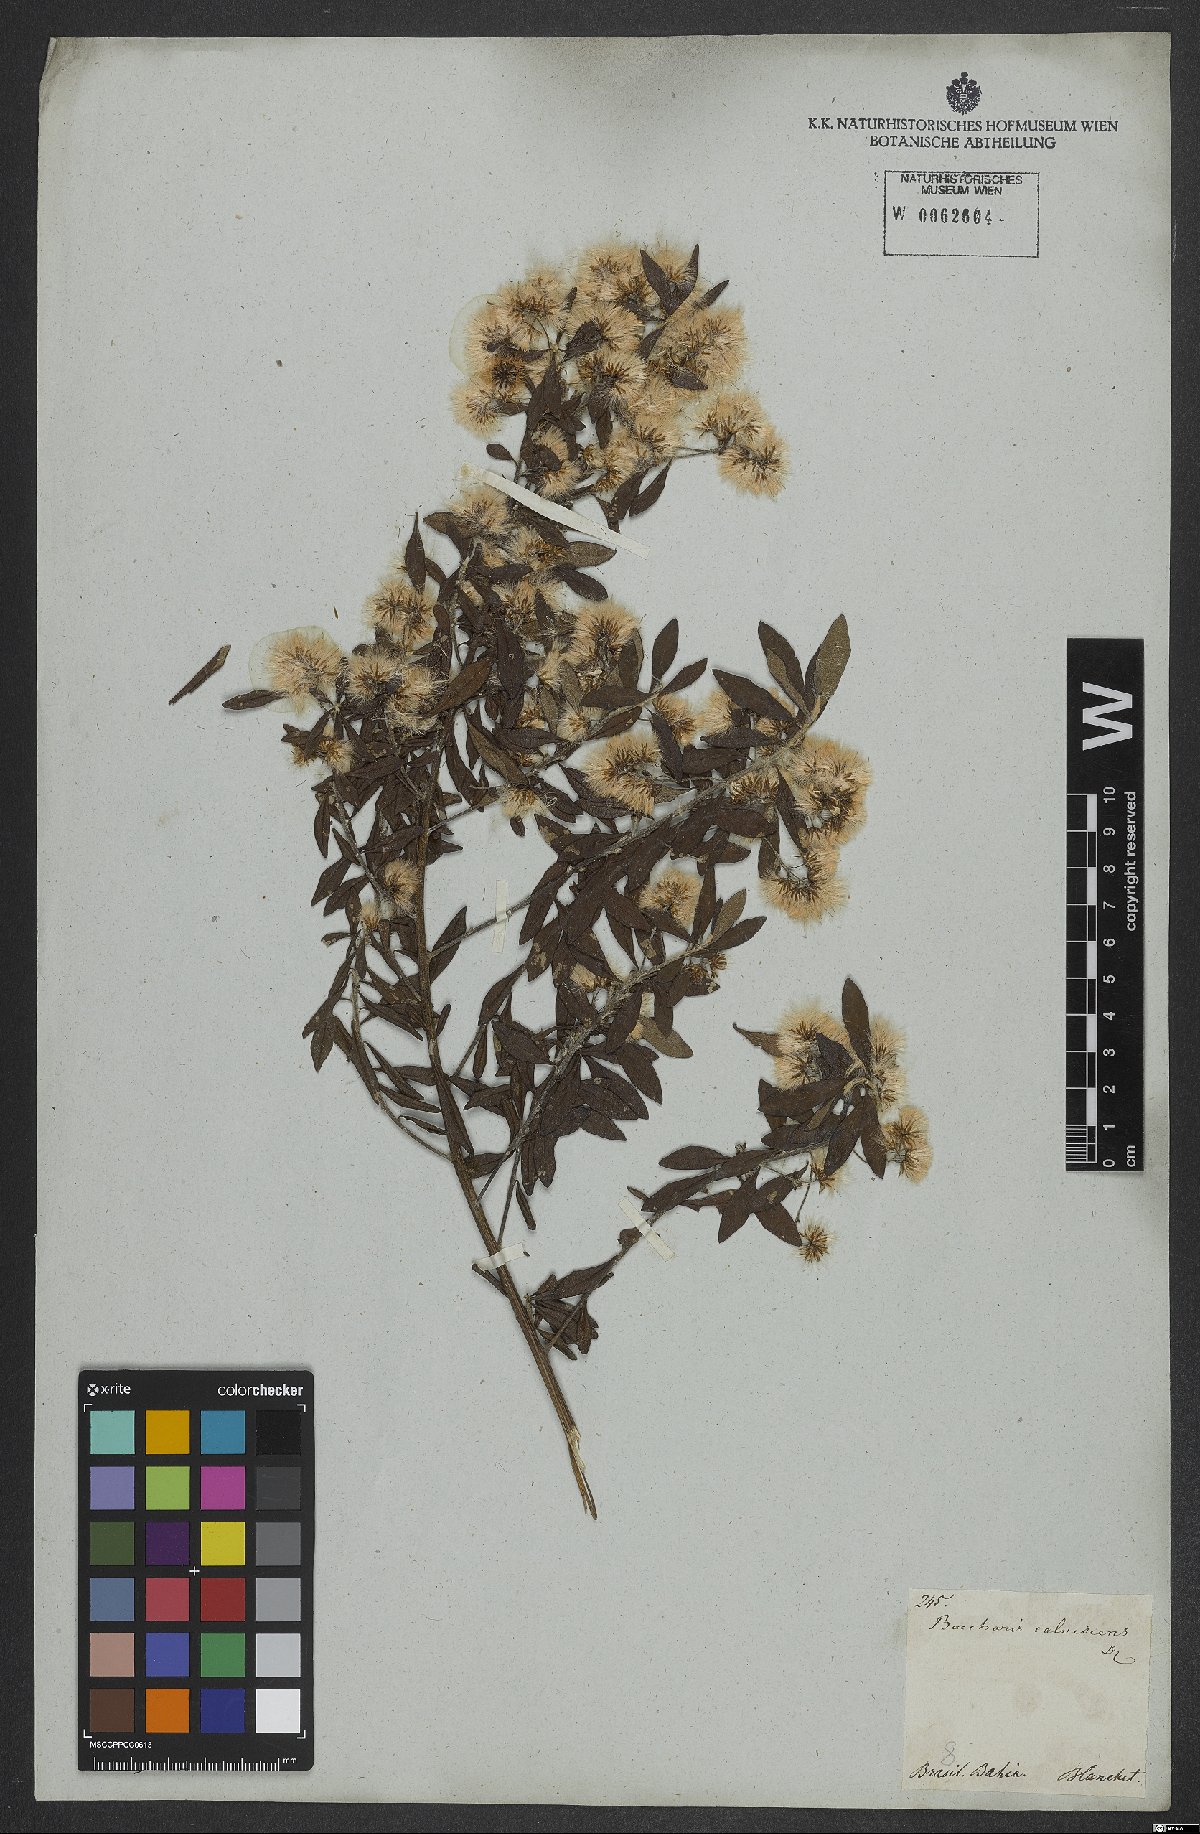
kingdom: Plantae
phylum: Tracheophyta
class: Magnoliopsida
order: Asterales
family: Asteraceae
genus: Baccharis
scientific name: Baccharis calvescens
